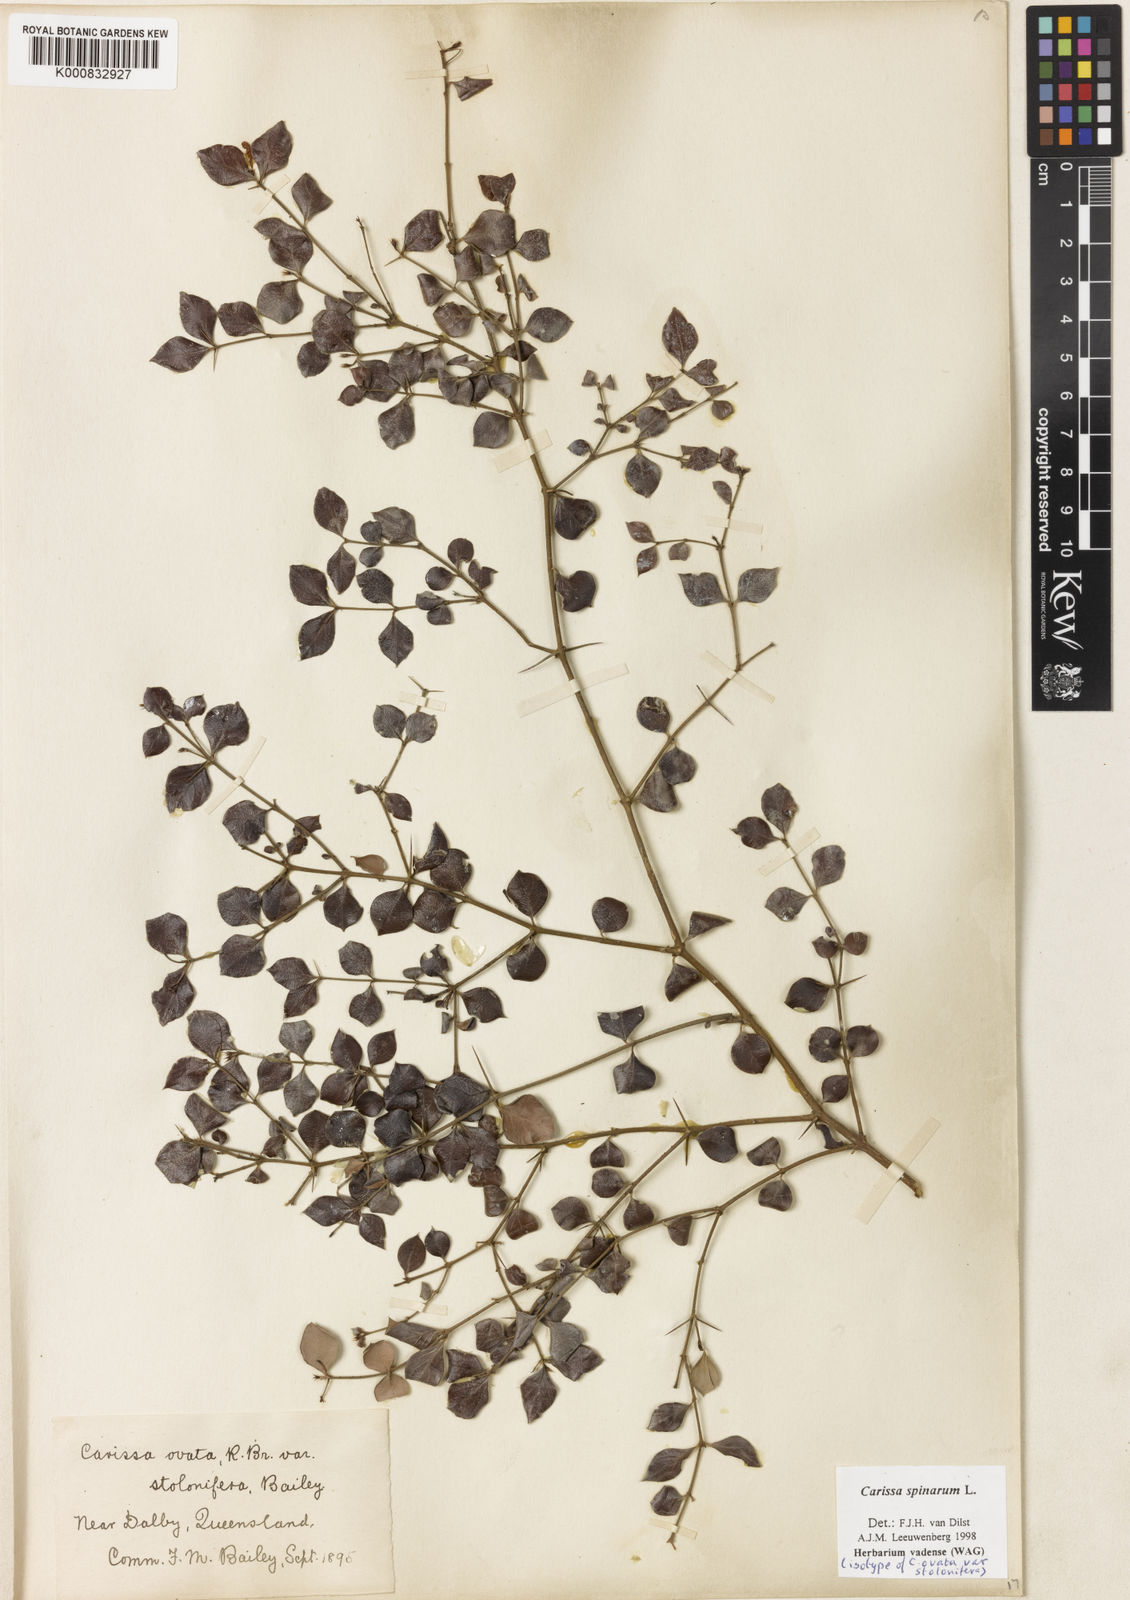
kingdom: Plantae
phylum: Tracheophyta
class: Magnoliopsida
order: Gentianales
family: Apocynaceae
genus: Carissa
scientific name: Carissa spinarum
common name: Egyptian carissa
